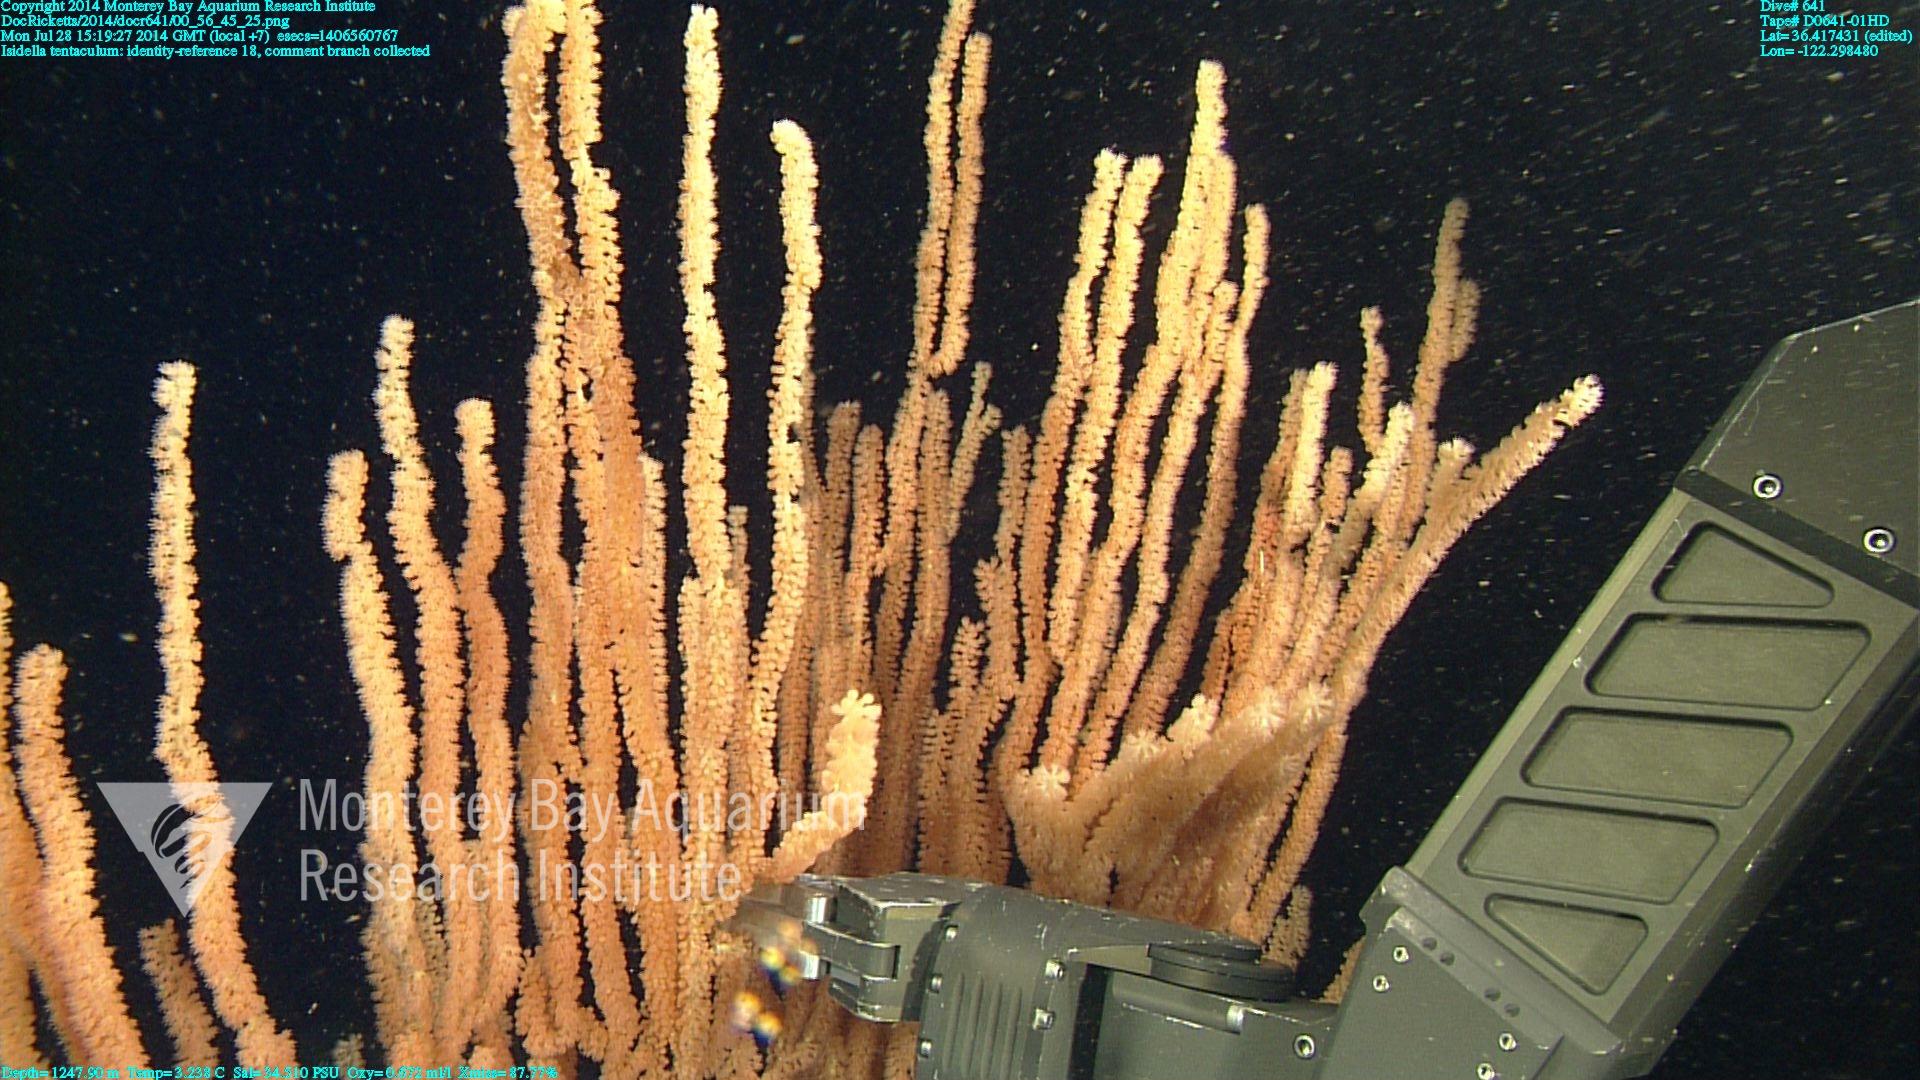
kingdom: Animalia
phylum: Cnidaria
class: Anthozoa
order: Scleralcyonacea
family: Keratoisididae
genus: Isidella
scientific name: Isidella tentaculum
